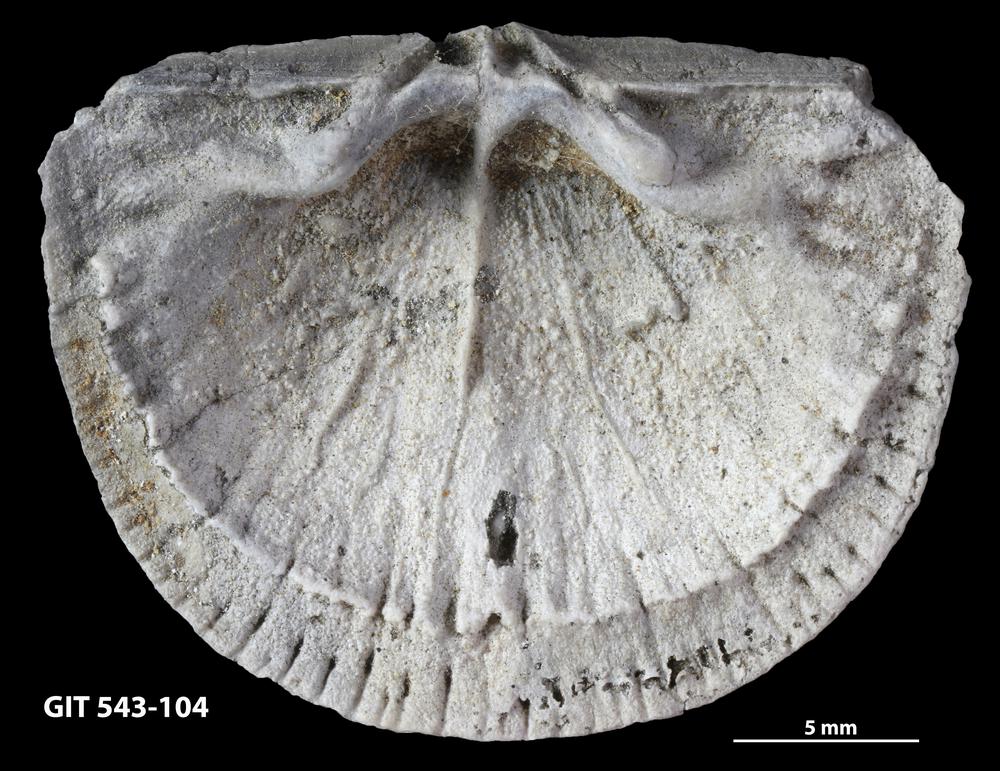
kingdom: Animalia
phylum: Brachiopoda
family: Gonambonitidae
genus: Estlandia
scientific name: Estlandia Orthisina marginata
